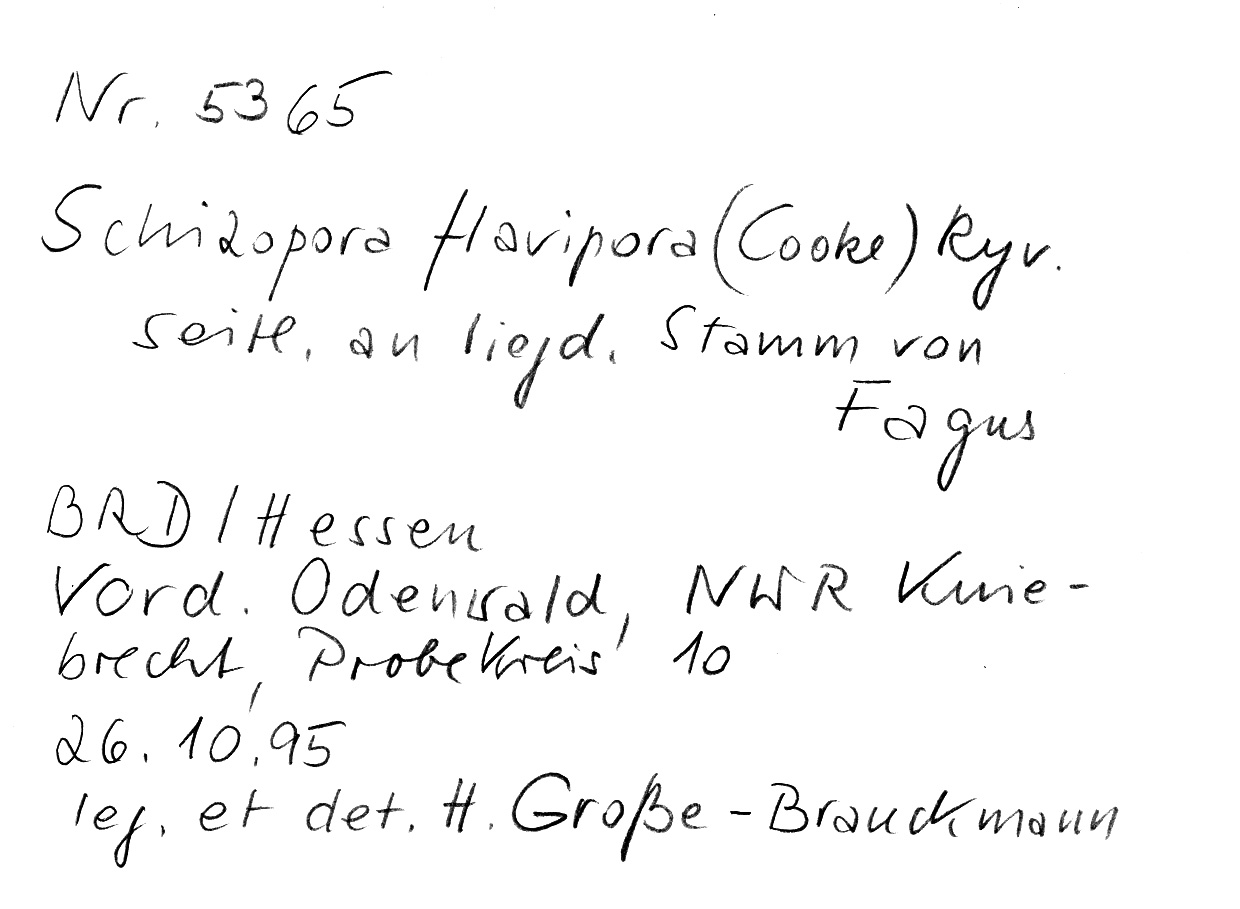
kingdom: Fungi
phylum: Basidiomycota
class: Agaricomycetes
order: Hymenochaetales
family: Schizoporaceae
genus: Xylodon
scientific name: Xylodon flaviporus
